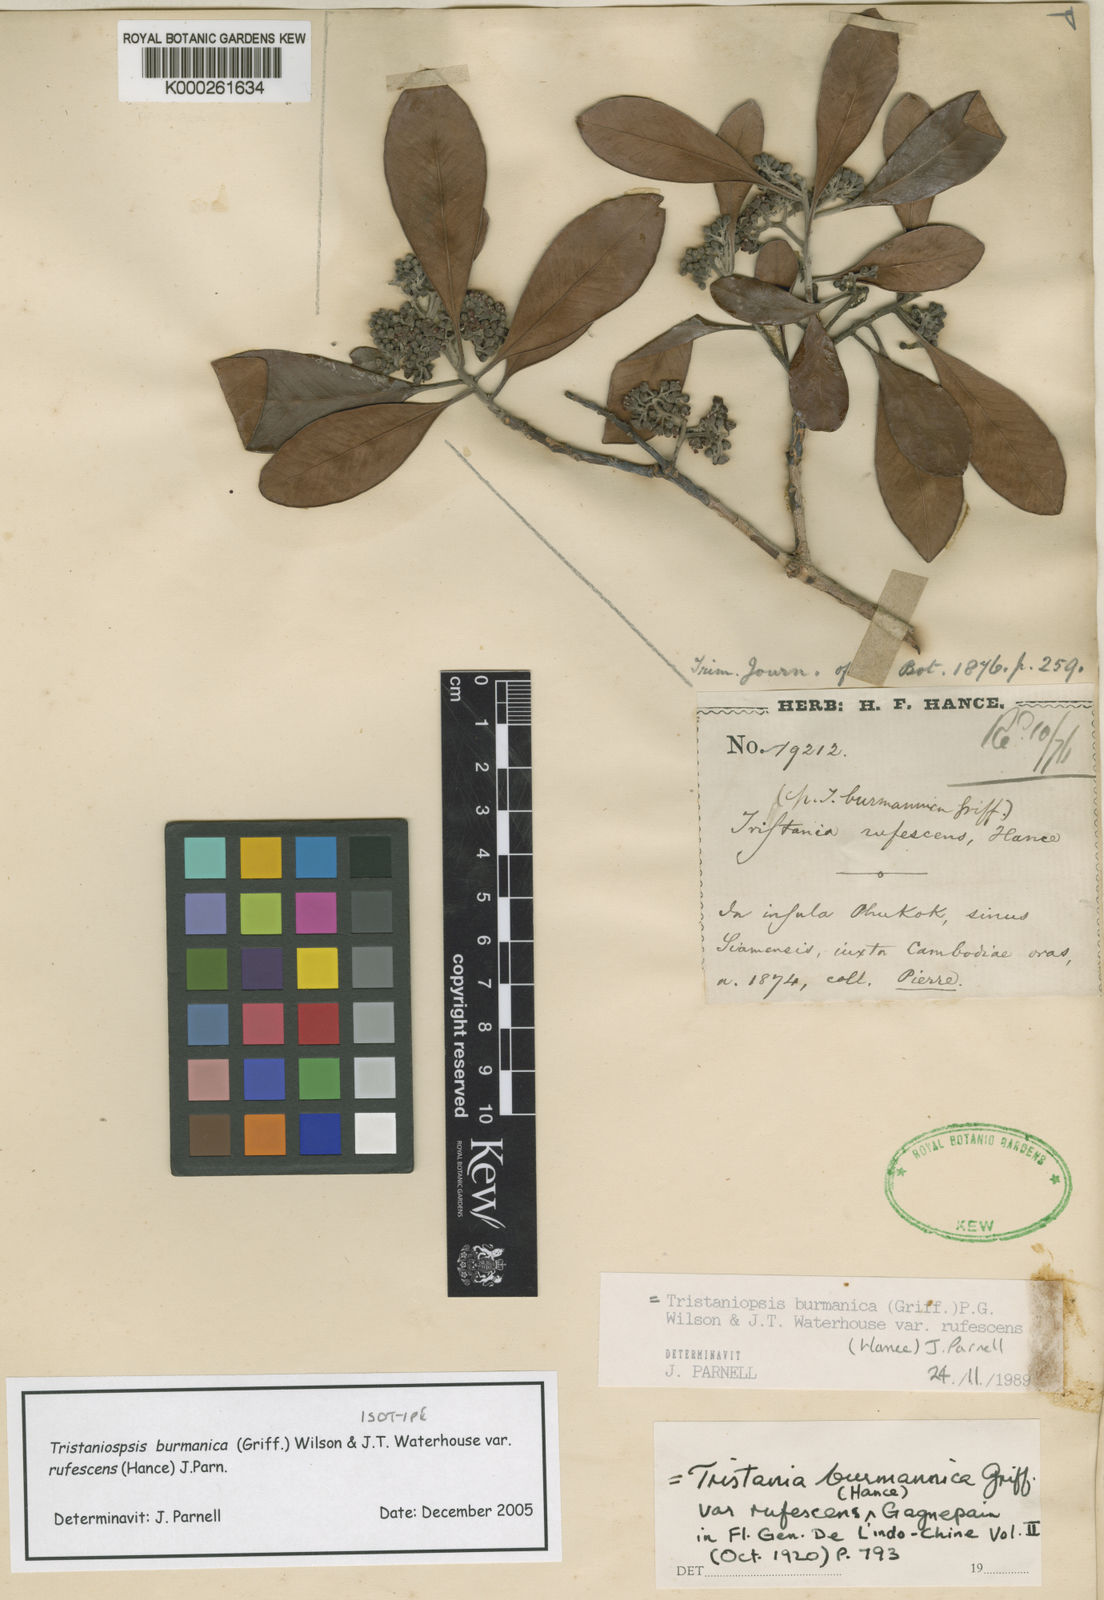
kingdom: Plantae
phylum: Tracheophyta
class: Magnoliopsida
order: Myrtales
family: Myrtaceae
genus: Tristaniopsis
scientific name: Tristaniopsis burmanica
